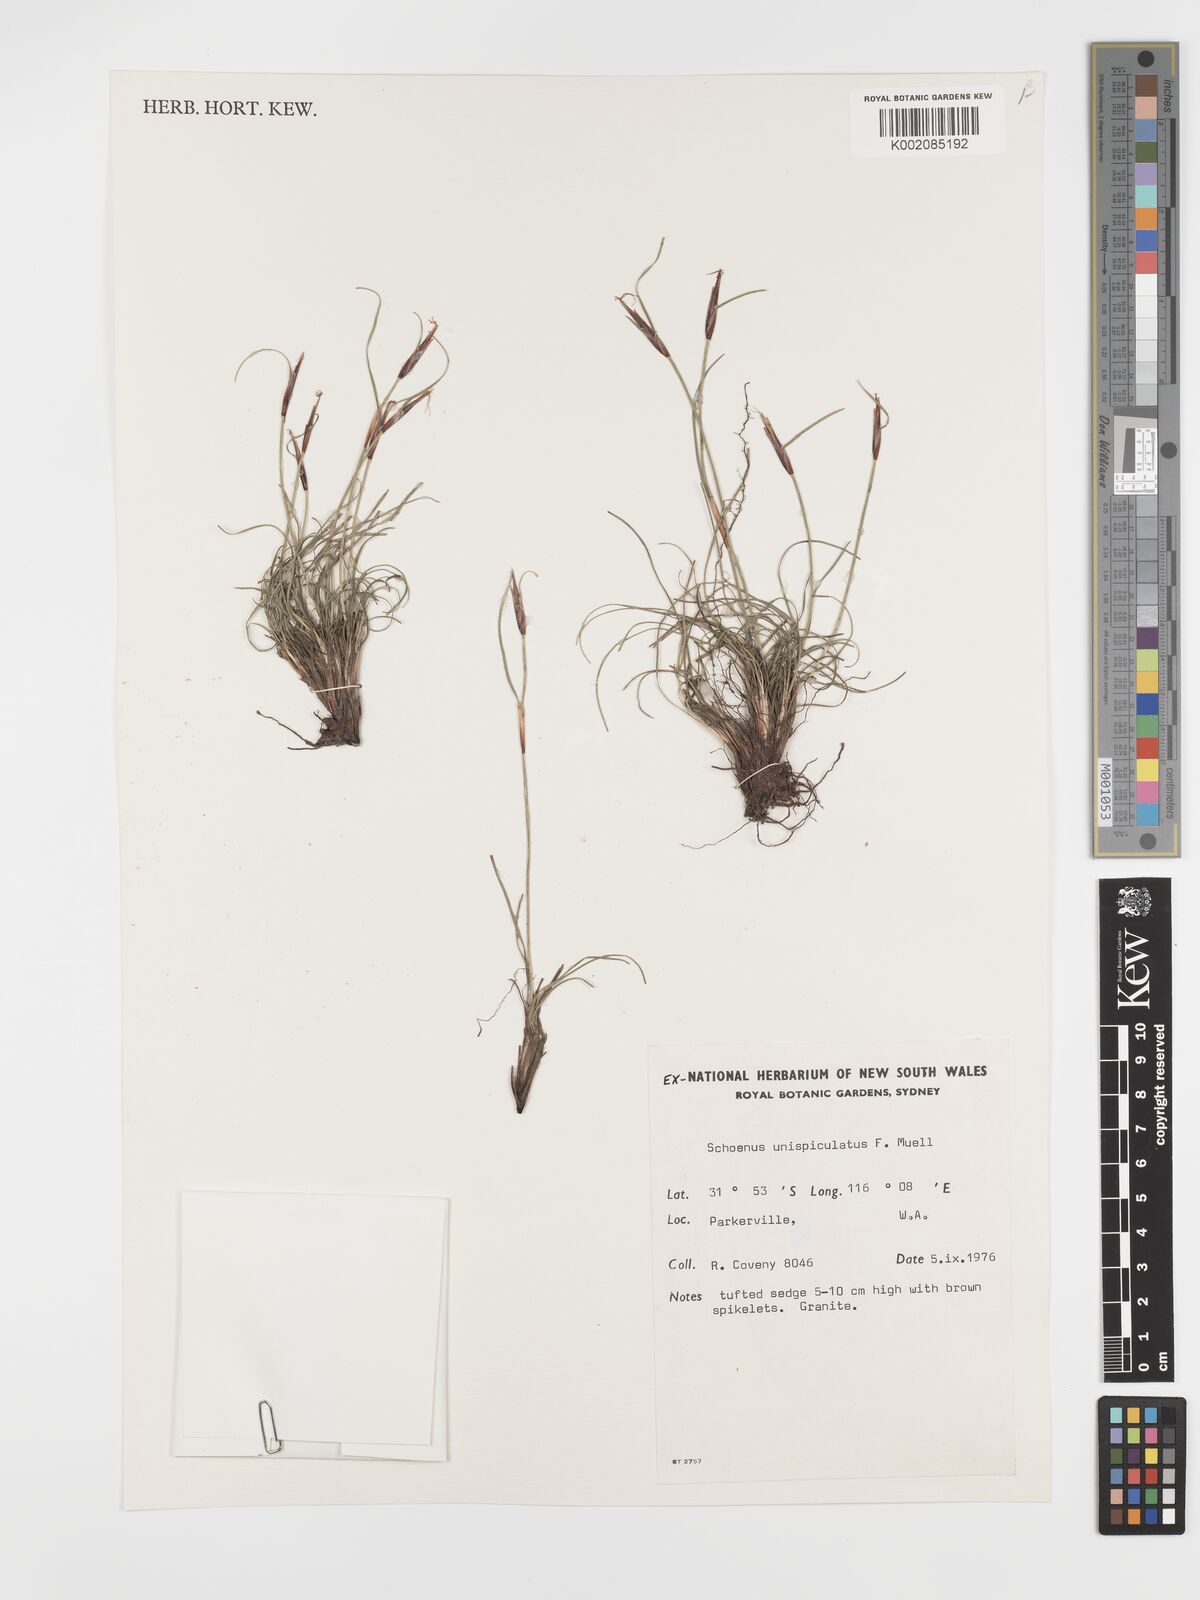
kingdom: Plantae
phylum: Tracheophyta
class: Liliopsida
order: Poales
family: Cyperaceae
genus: Schoenus
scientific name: Schoenus unispiculatus
